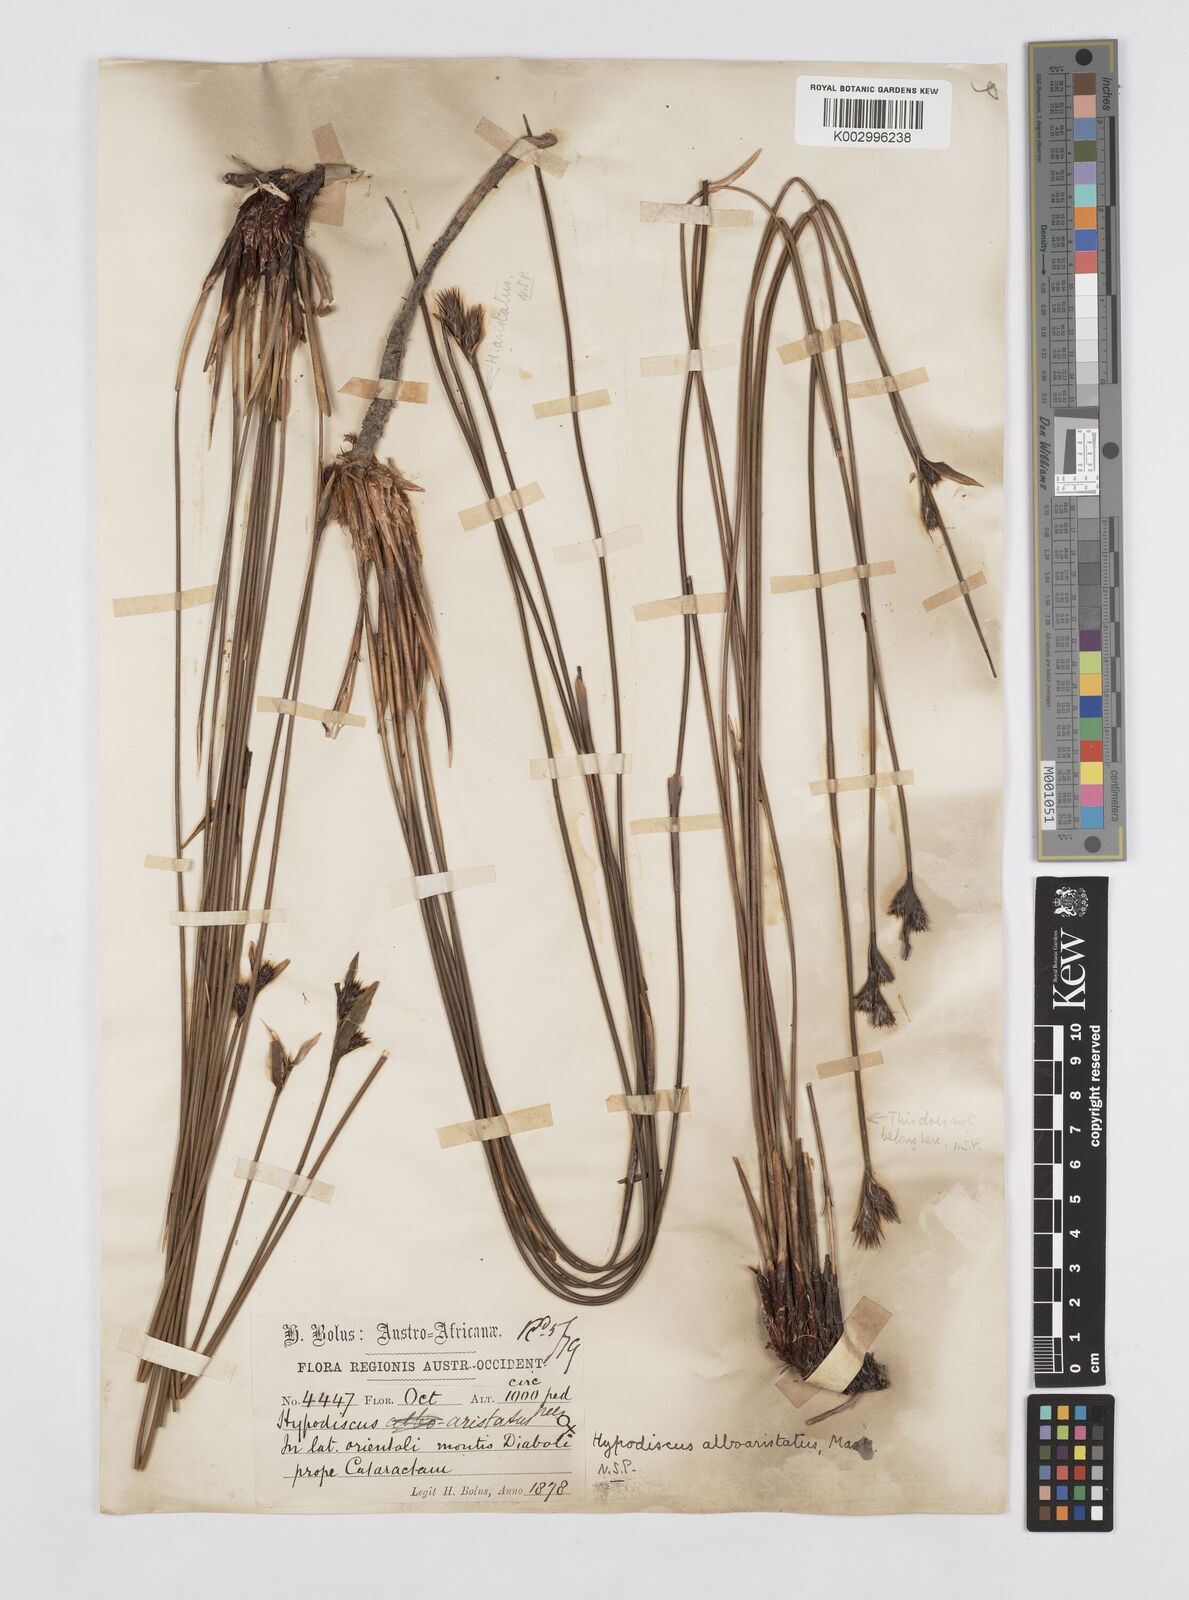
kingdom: Plantae
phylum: Tracheophyta
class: Liliopsida
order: Poales
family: Restionaceae
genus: Hypodiscus
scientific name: Hypodiscus alboaristatus
